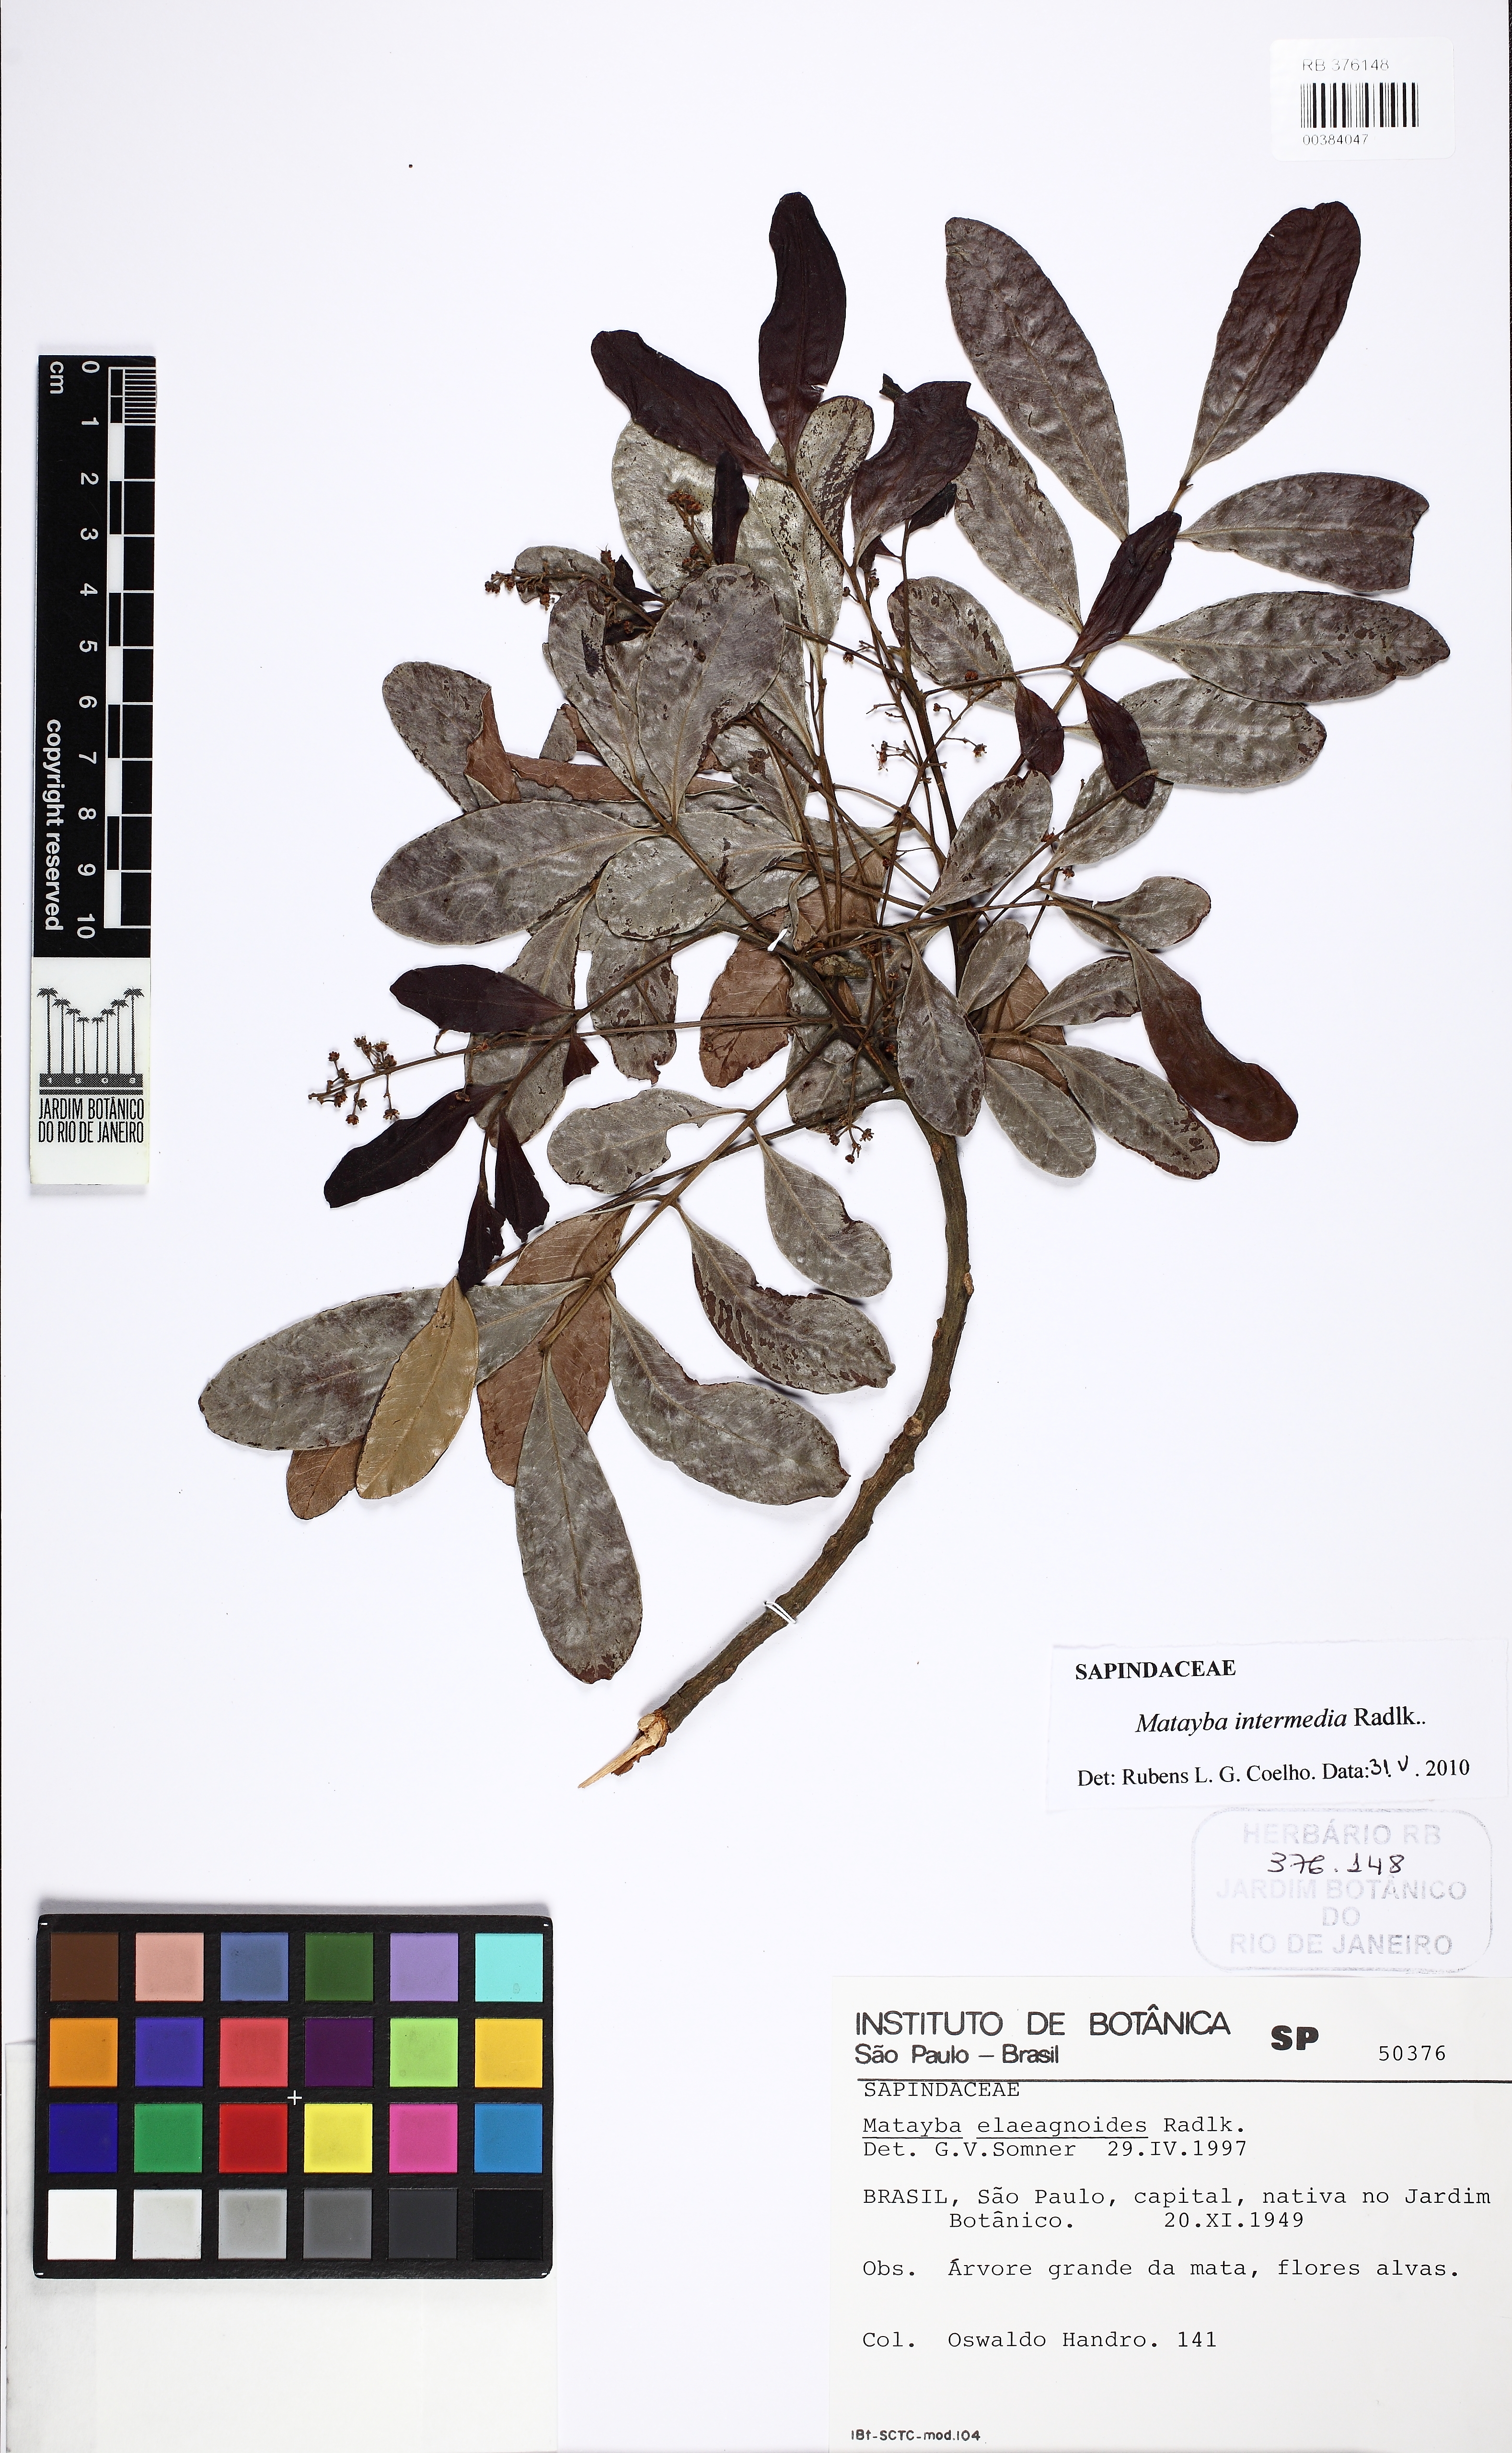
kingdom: Plantae
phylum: Tracheophyta
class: Magnoliopsida
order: Sapindales
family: Sapindaceae
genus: Matayba
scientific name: Matayba intermedia
